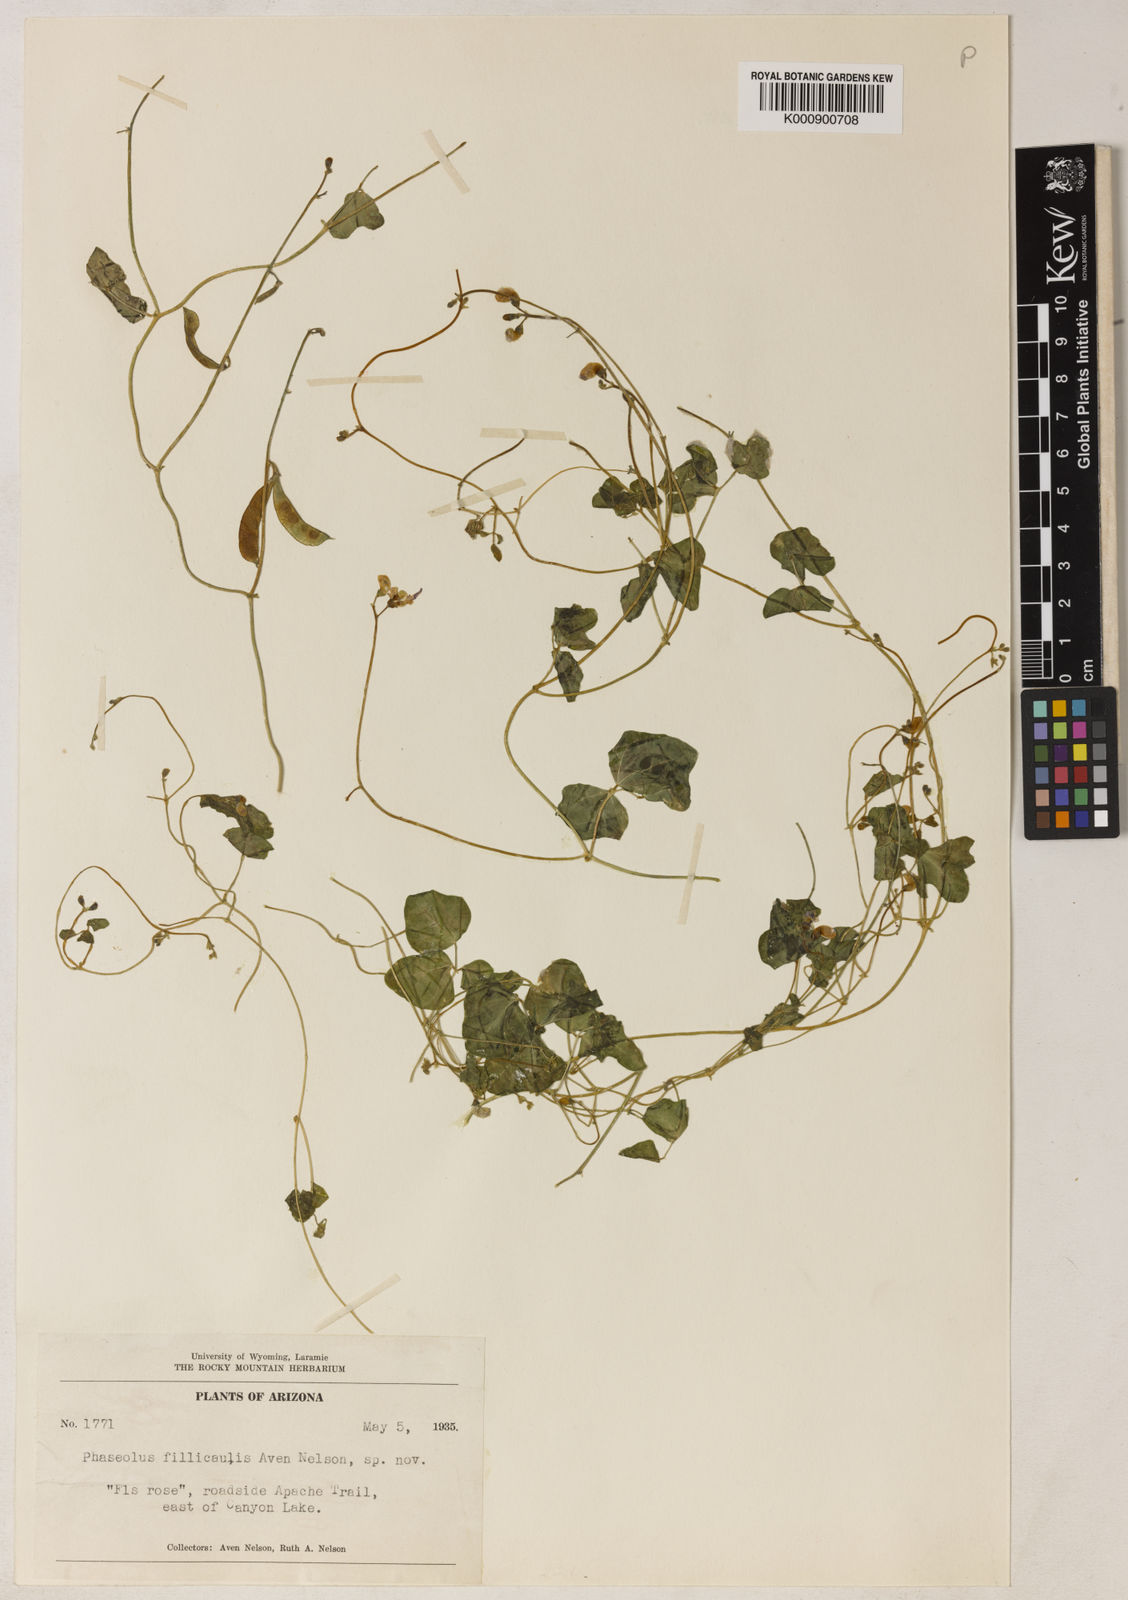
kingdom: Plantae
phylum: Tracheophyta
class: Magnoliopsida
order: Fabales
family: Fabaceae
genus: Phaseolus
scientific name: Phaseolus
